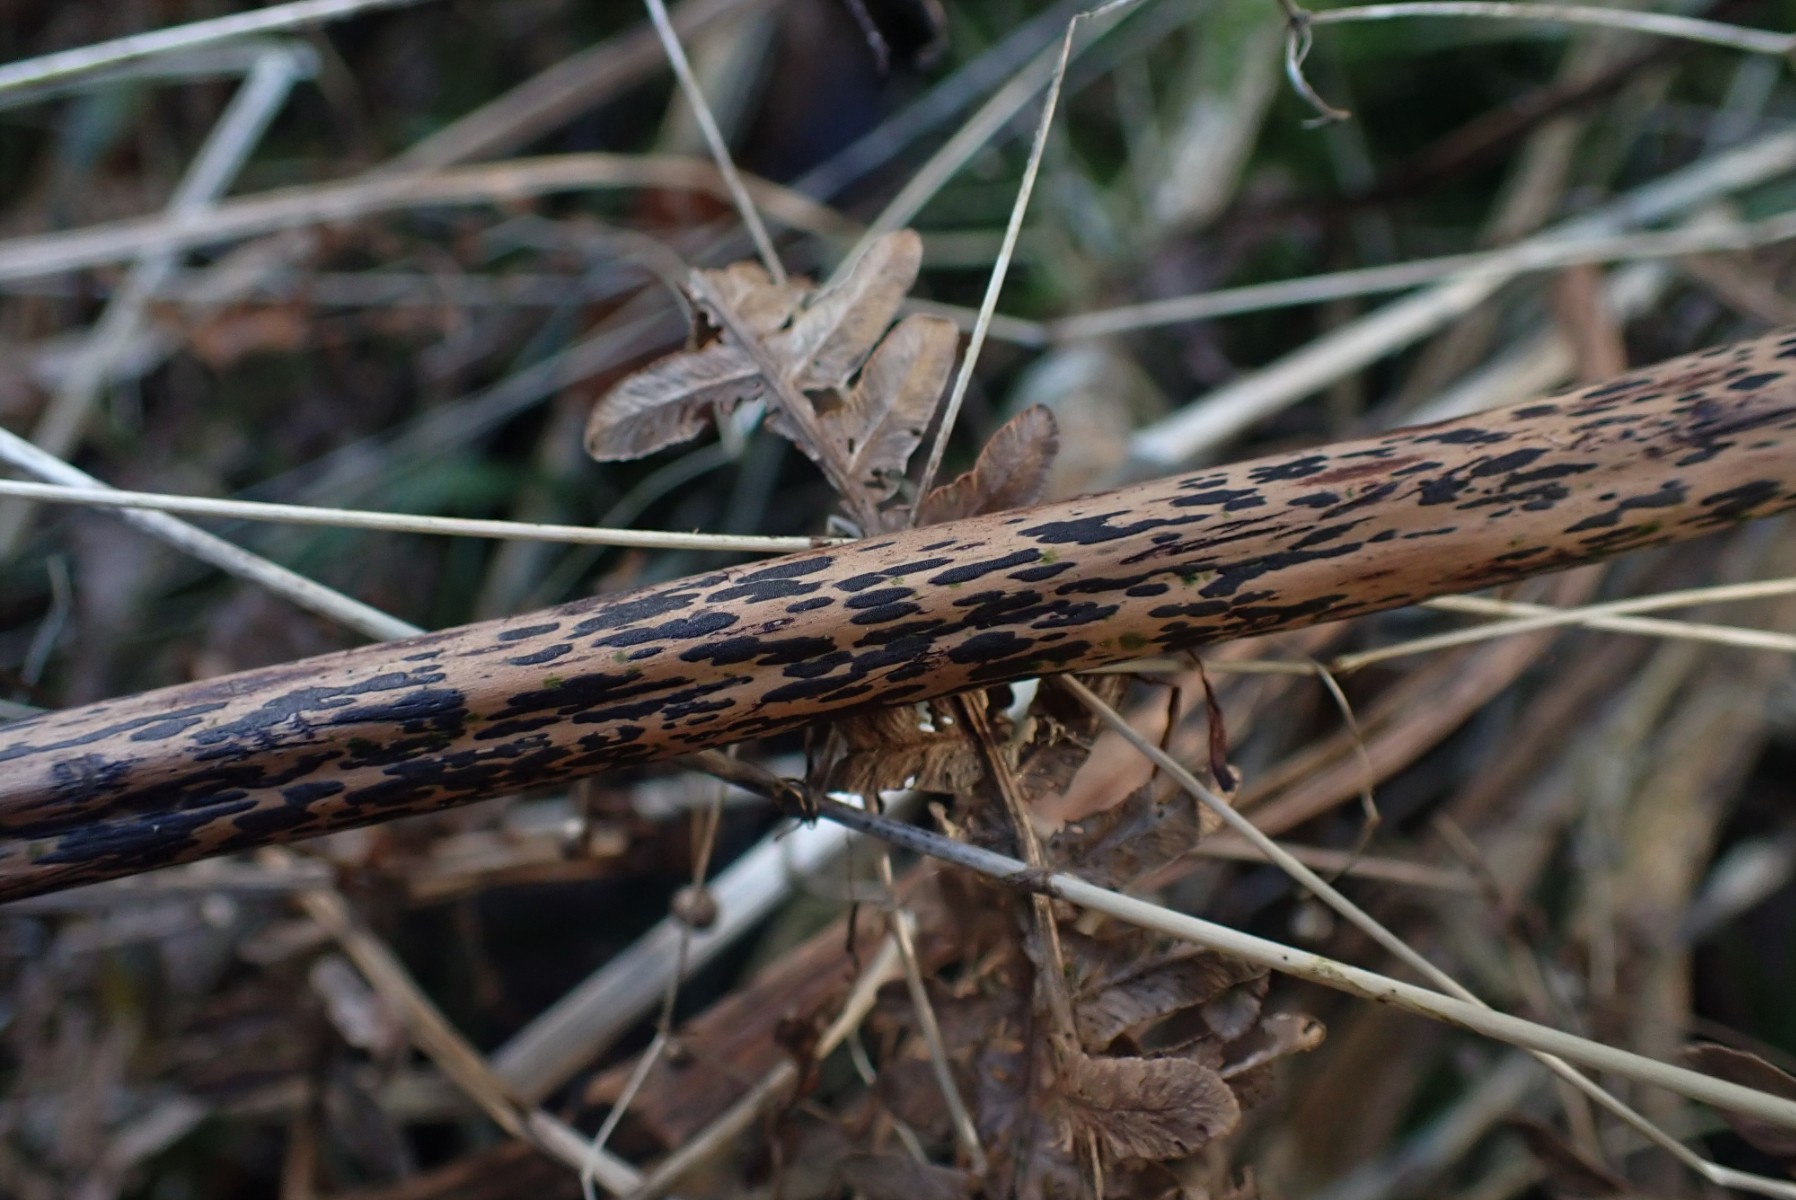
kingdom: Fungi
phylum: Ascomycota
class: Dothideomycetes
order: Pleosporales
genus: Rhopographus
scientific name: Rhopographus filicinus
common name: Bracken map
